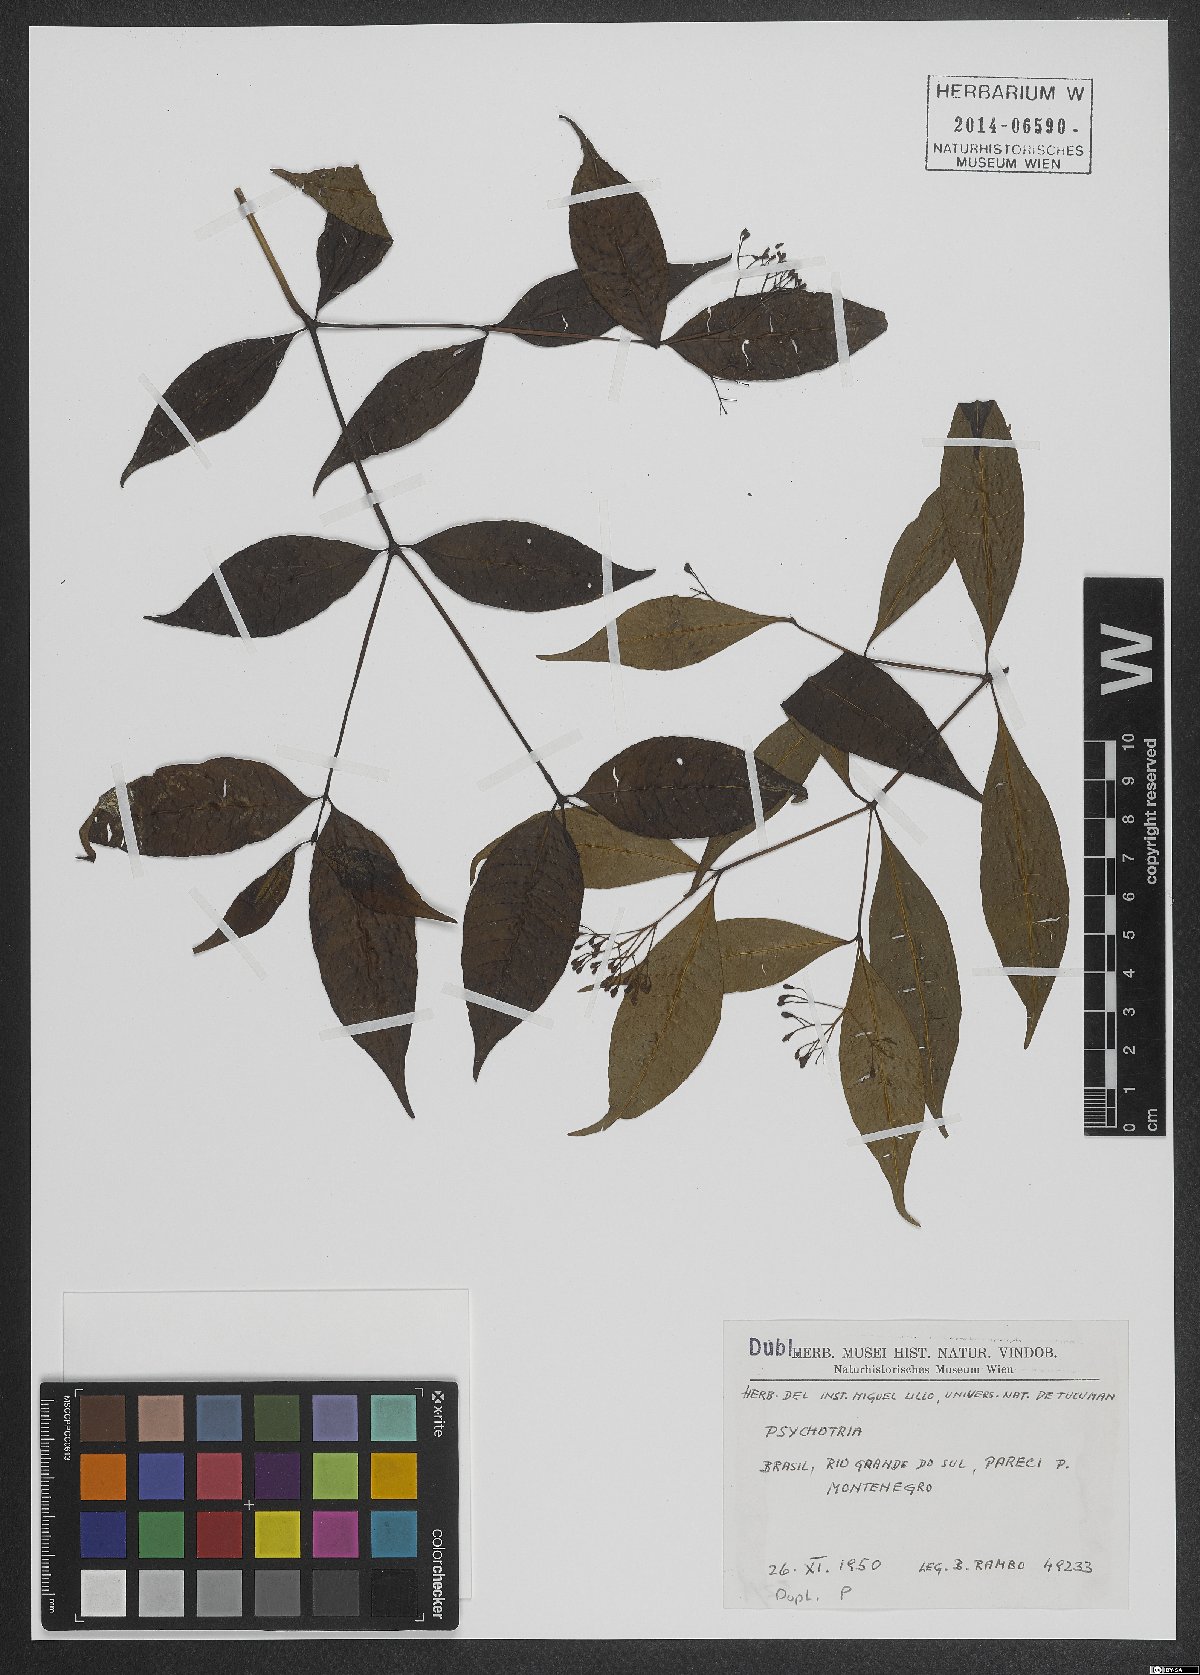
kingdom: Plantae
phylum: Tracheophyta
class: Magnoliopsida
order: Gentianales
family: Rubiaceae
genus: Psychotria
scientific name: Psychotria leiocarpa
